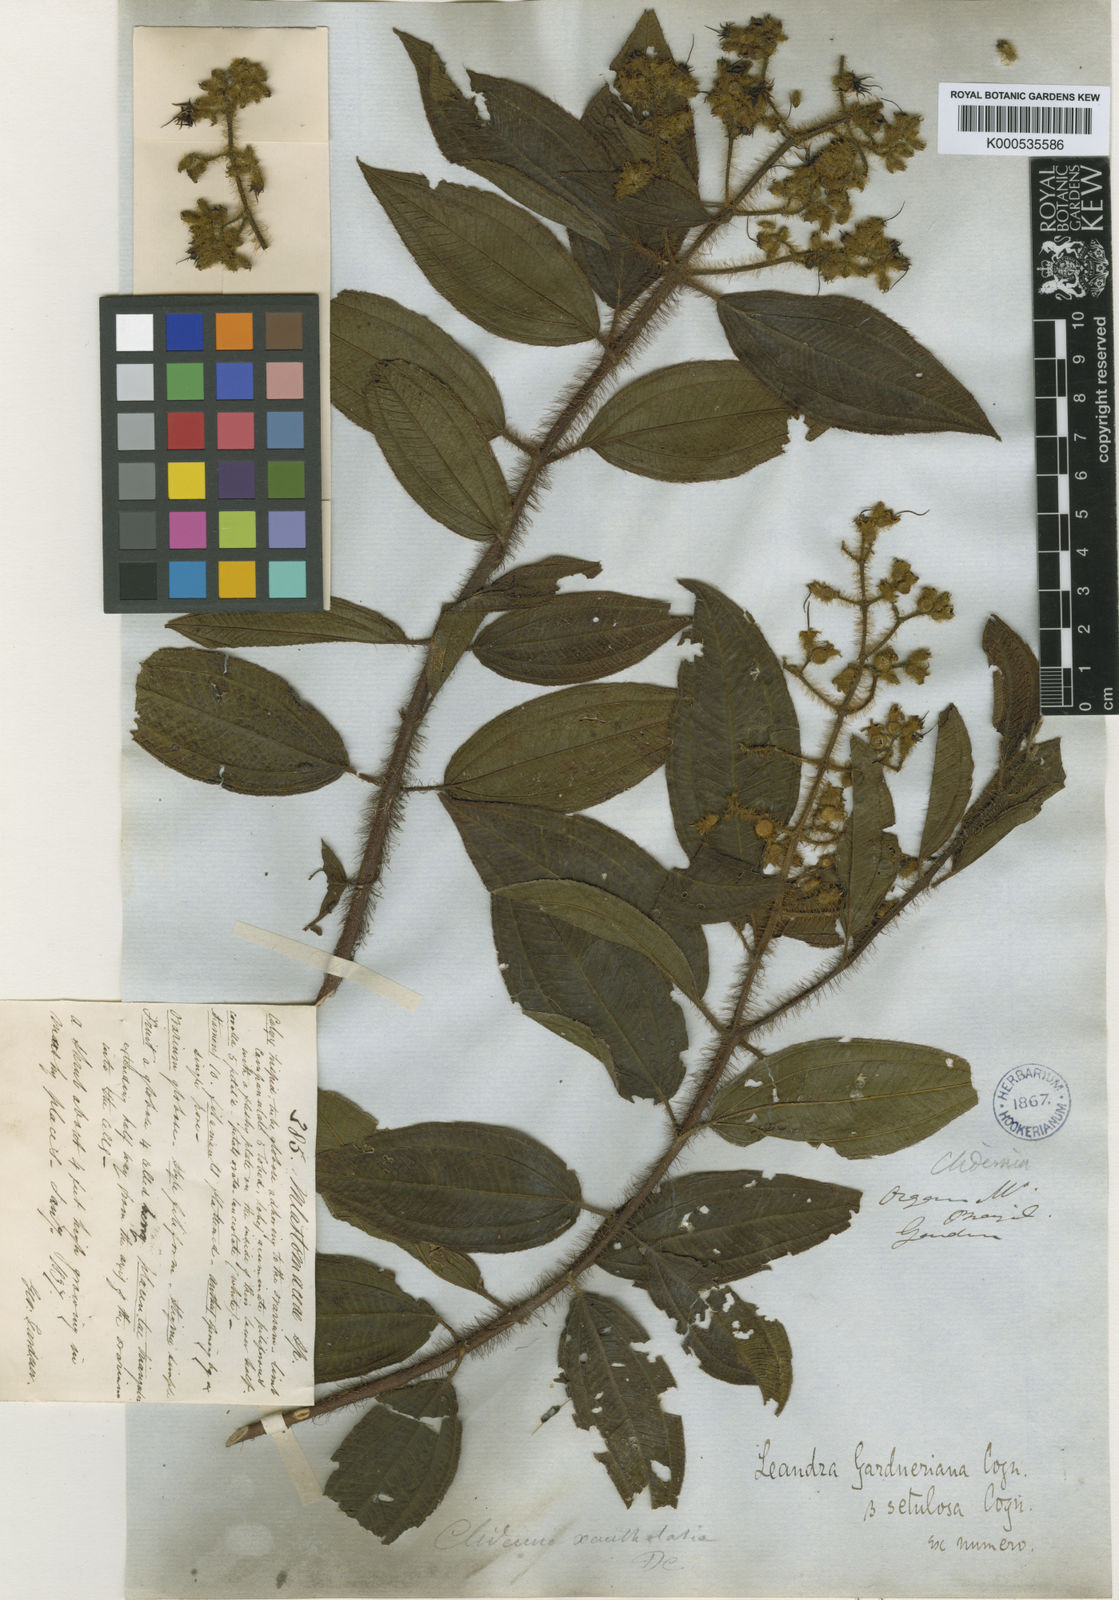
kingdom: Plantae
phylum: Tracheophyta
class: Magnoliopsida
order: Myrtales
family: Melastomataceae
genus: Miconia
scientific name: Miconia xantholasia
